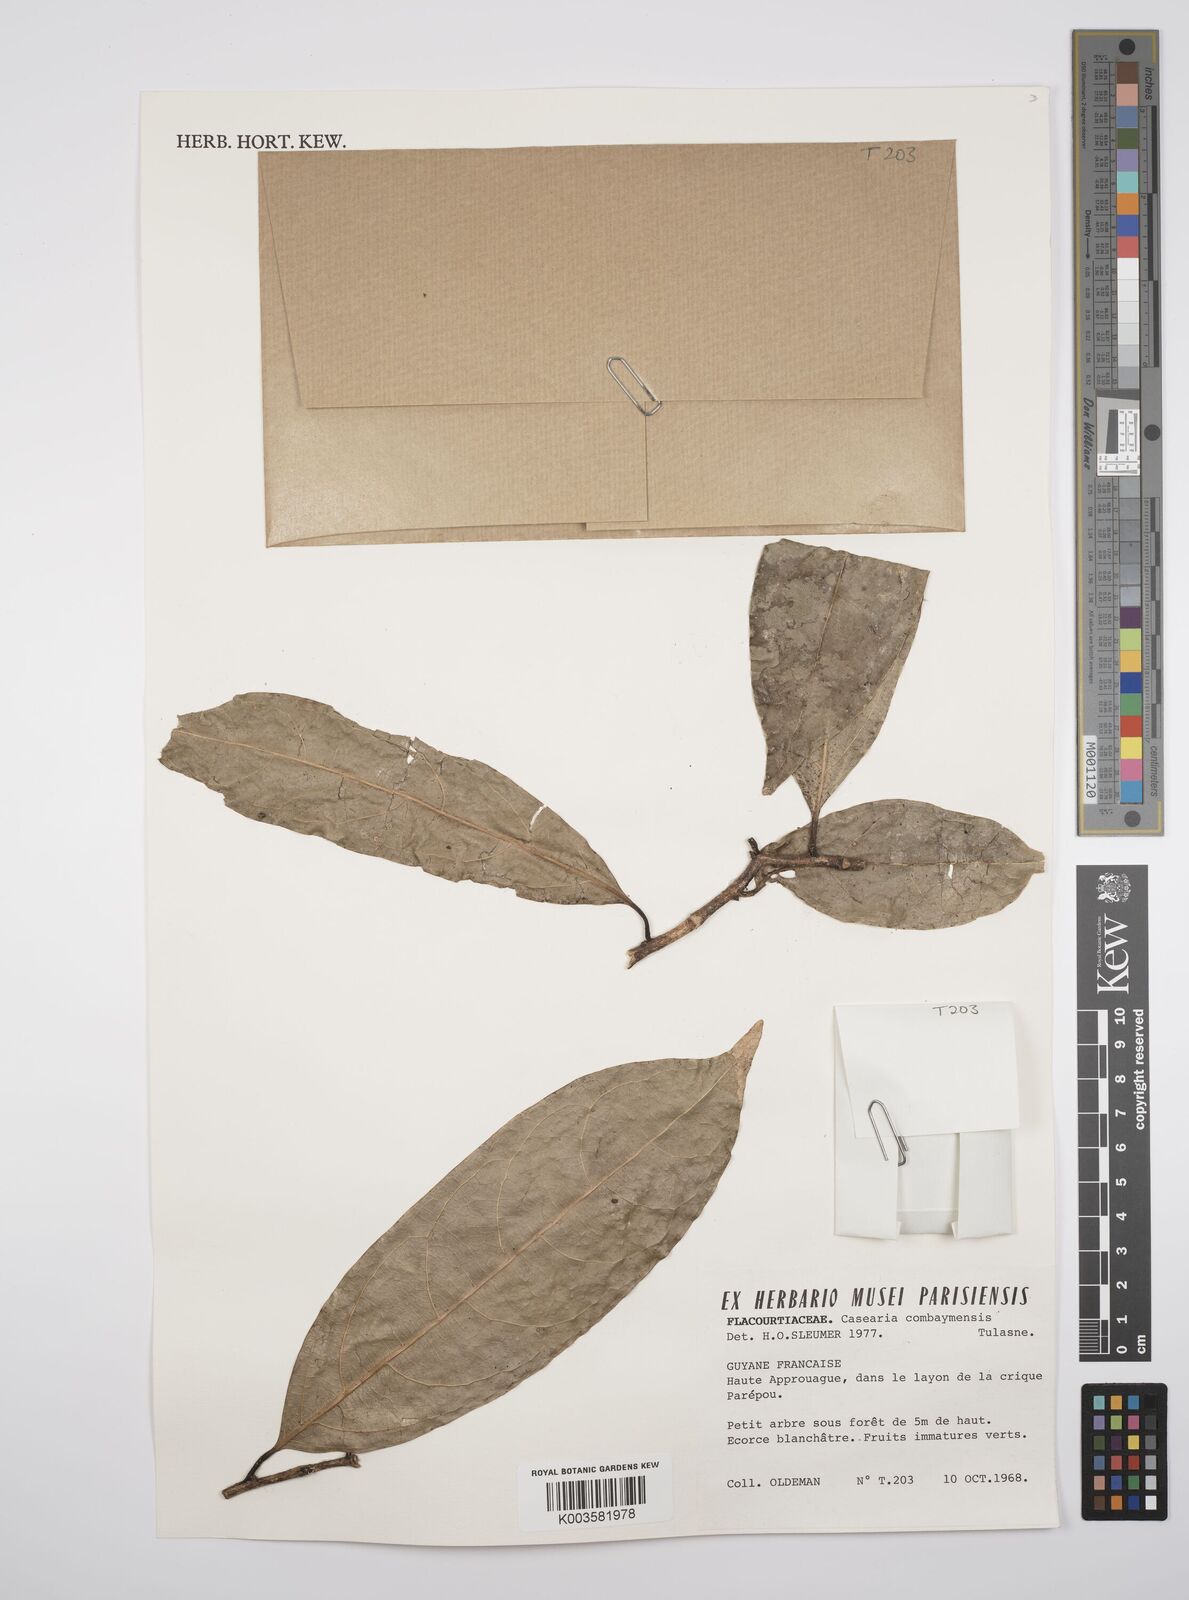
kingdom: Plantae
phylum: Tracheophyta
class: Magnoliopsida
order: Malpighiales
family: Salicaceae
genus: Casearia
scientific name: Casearia
